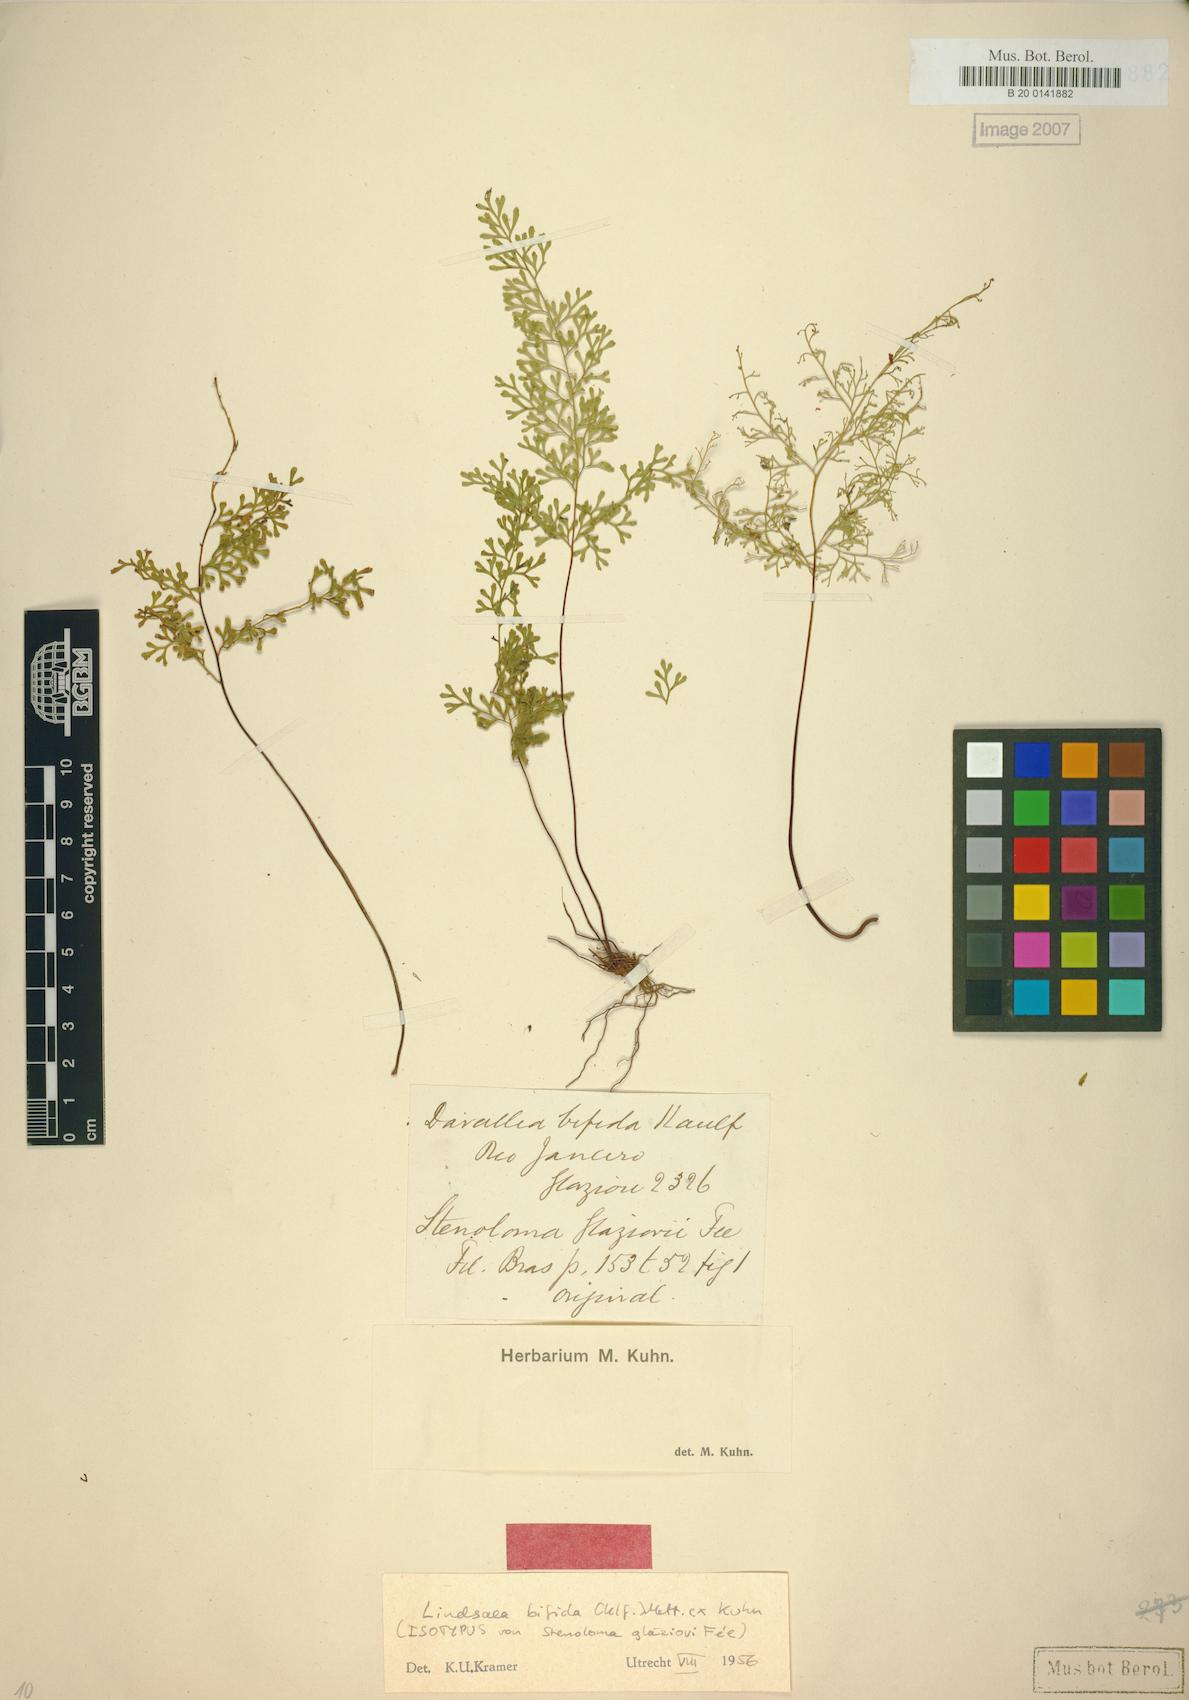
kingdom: Plantae
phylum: Tracheophyta
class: Polypodiopsida
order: Polypodiales
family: Lindsaeaceae
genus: Lindsaea
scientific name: Lindsaea bifida
